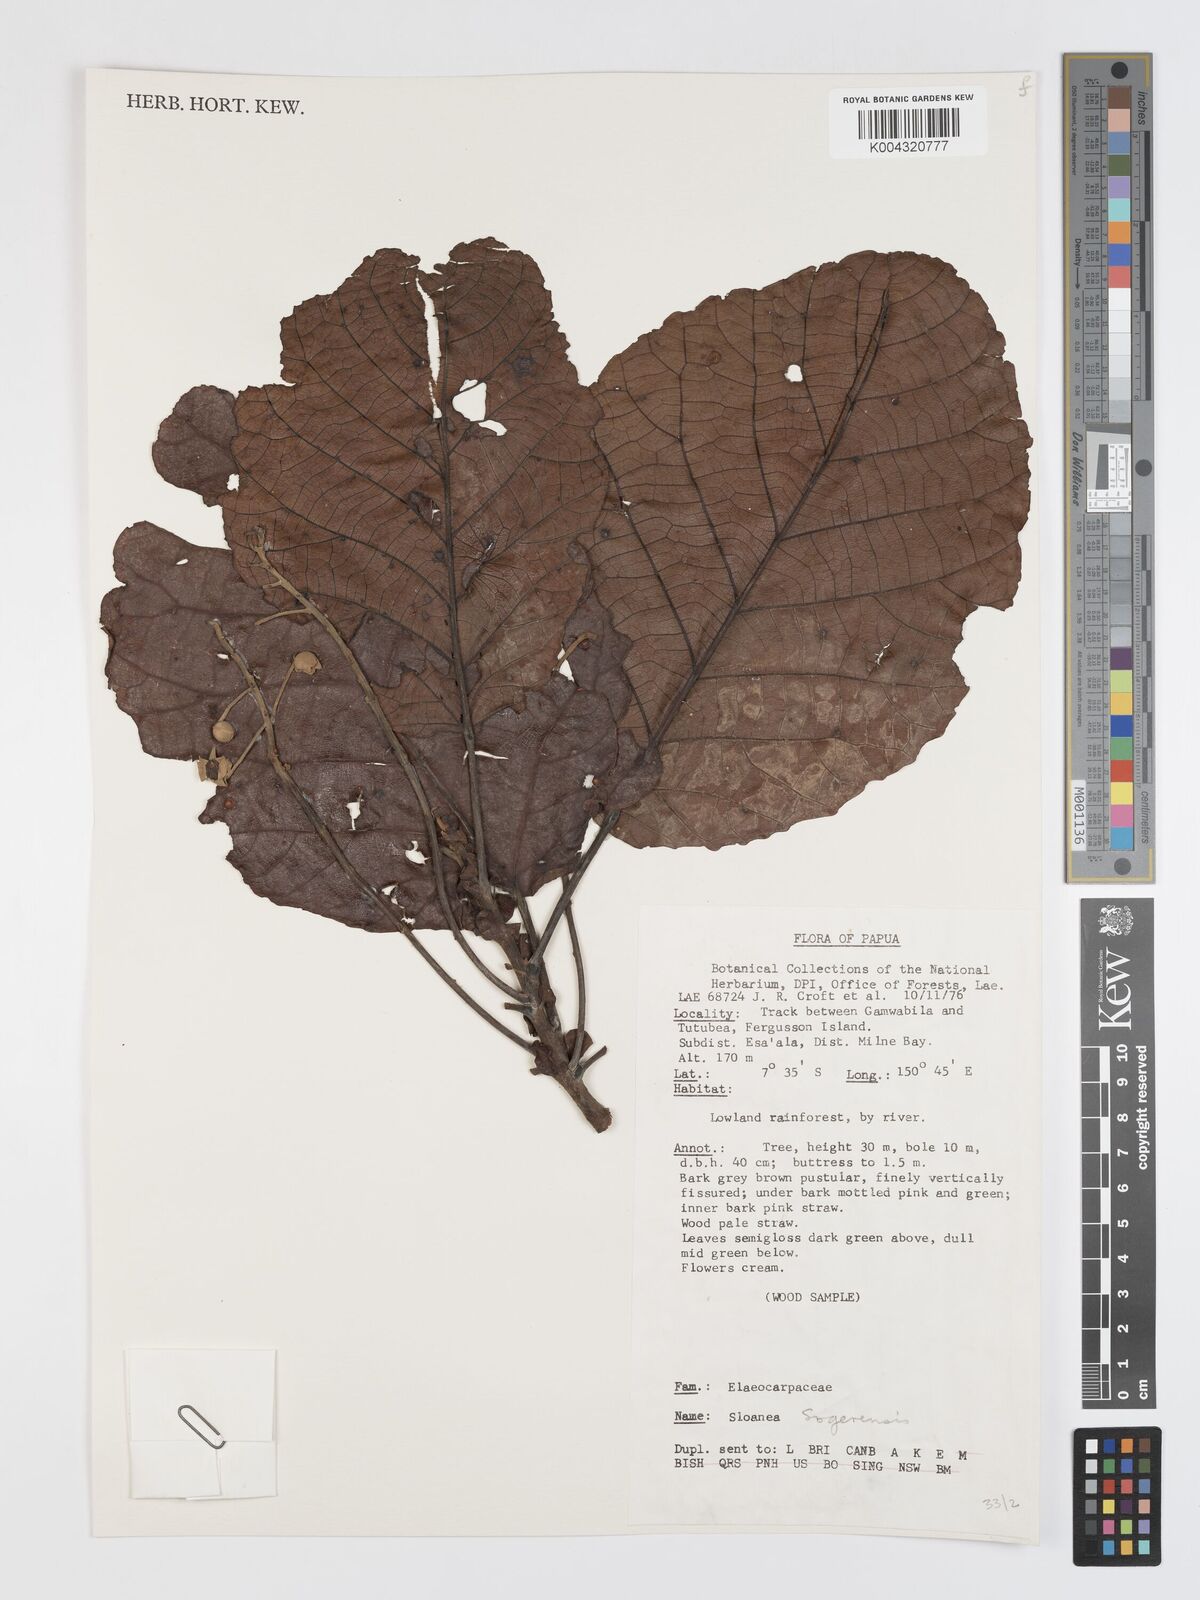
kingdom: Plantae
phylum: Tracheophyta
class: Magnoliopsida
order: Oxalidales
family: Elaeocarpaceae
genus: Sloanea
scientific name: Sloanea sogerensis
